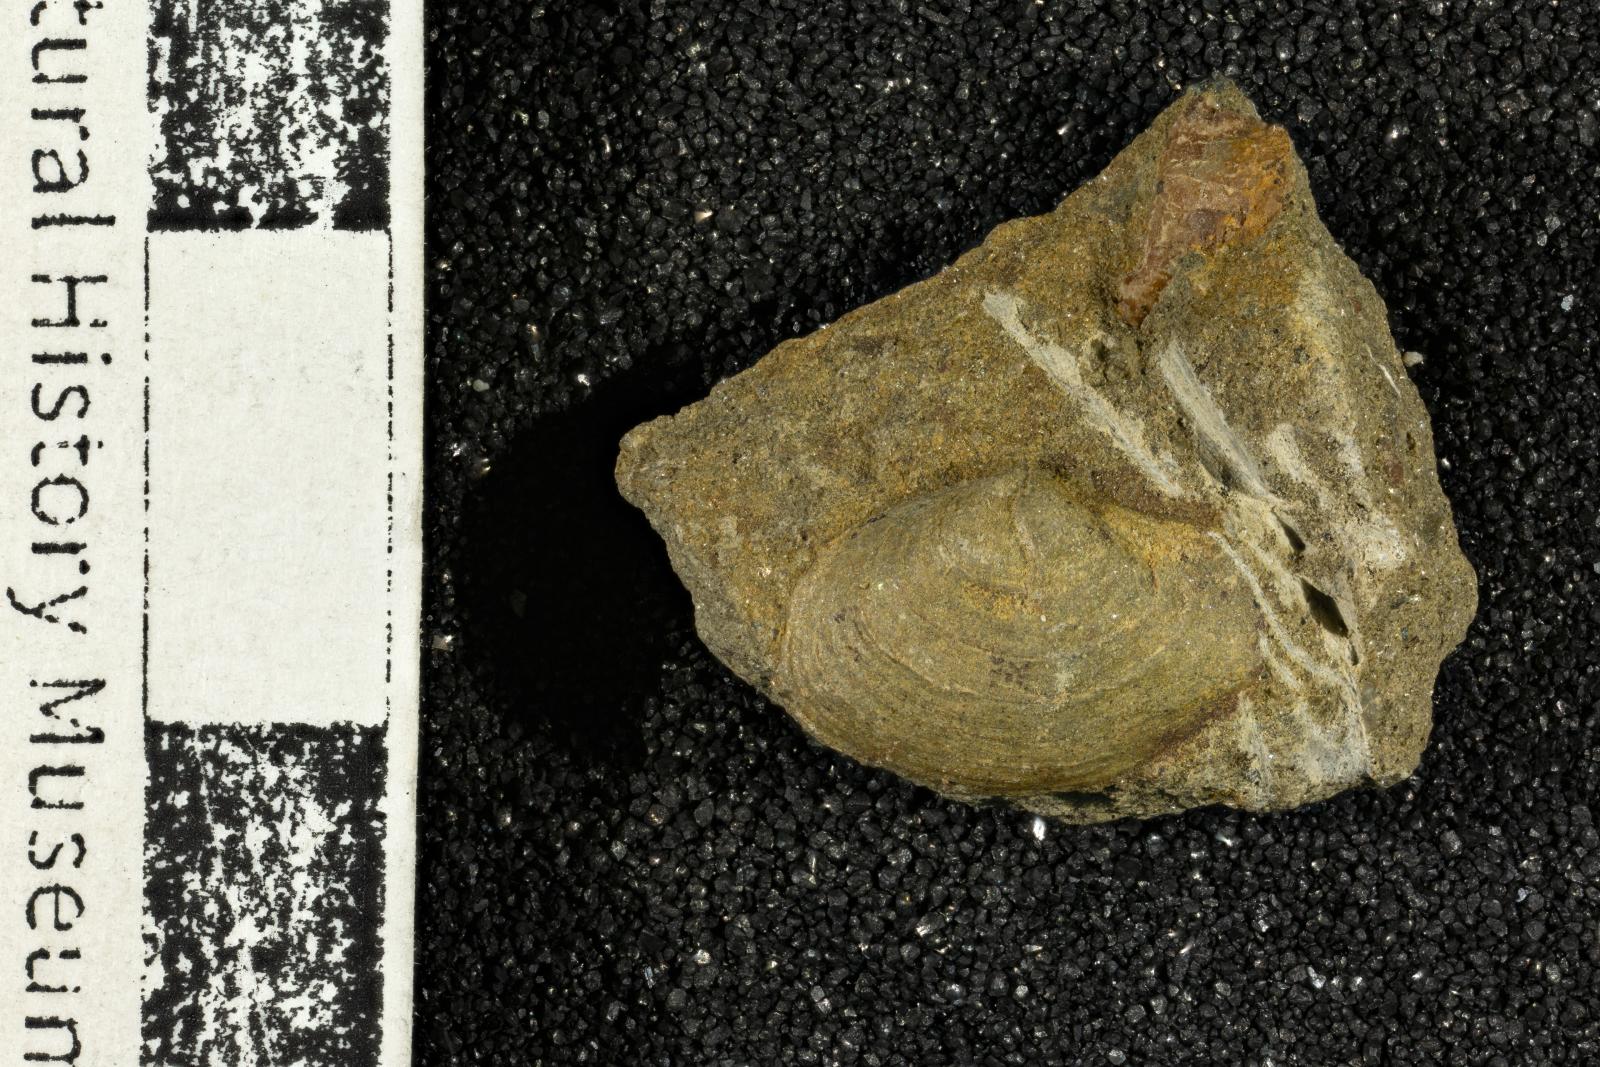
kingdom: Animalia
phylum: Mollusca
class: Bivalvia
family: Poromyidae
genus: Liopistha
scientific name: Liopistha Pholadomya anaana
